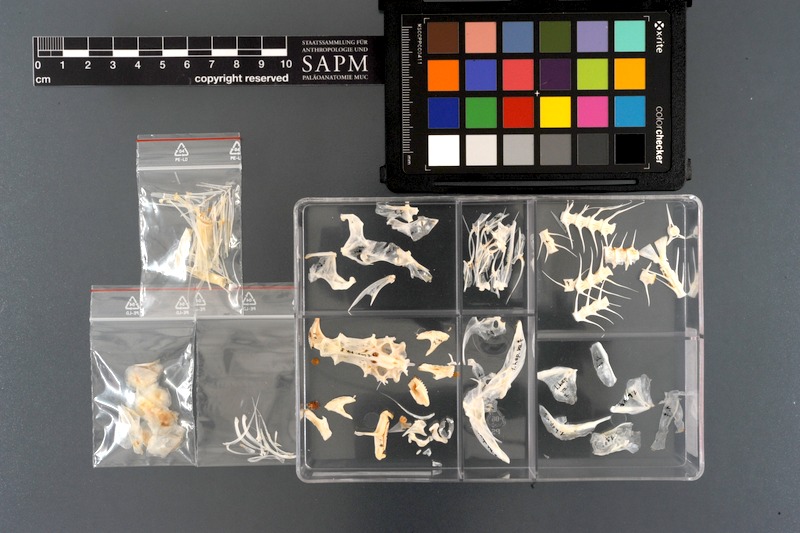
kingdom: Animalia
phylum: Chordata
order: Perciformes
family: Scaridae
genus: Leptoscarus
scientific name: Leptoscarus vaigiensis
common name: Marbled parrotfish
